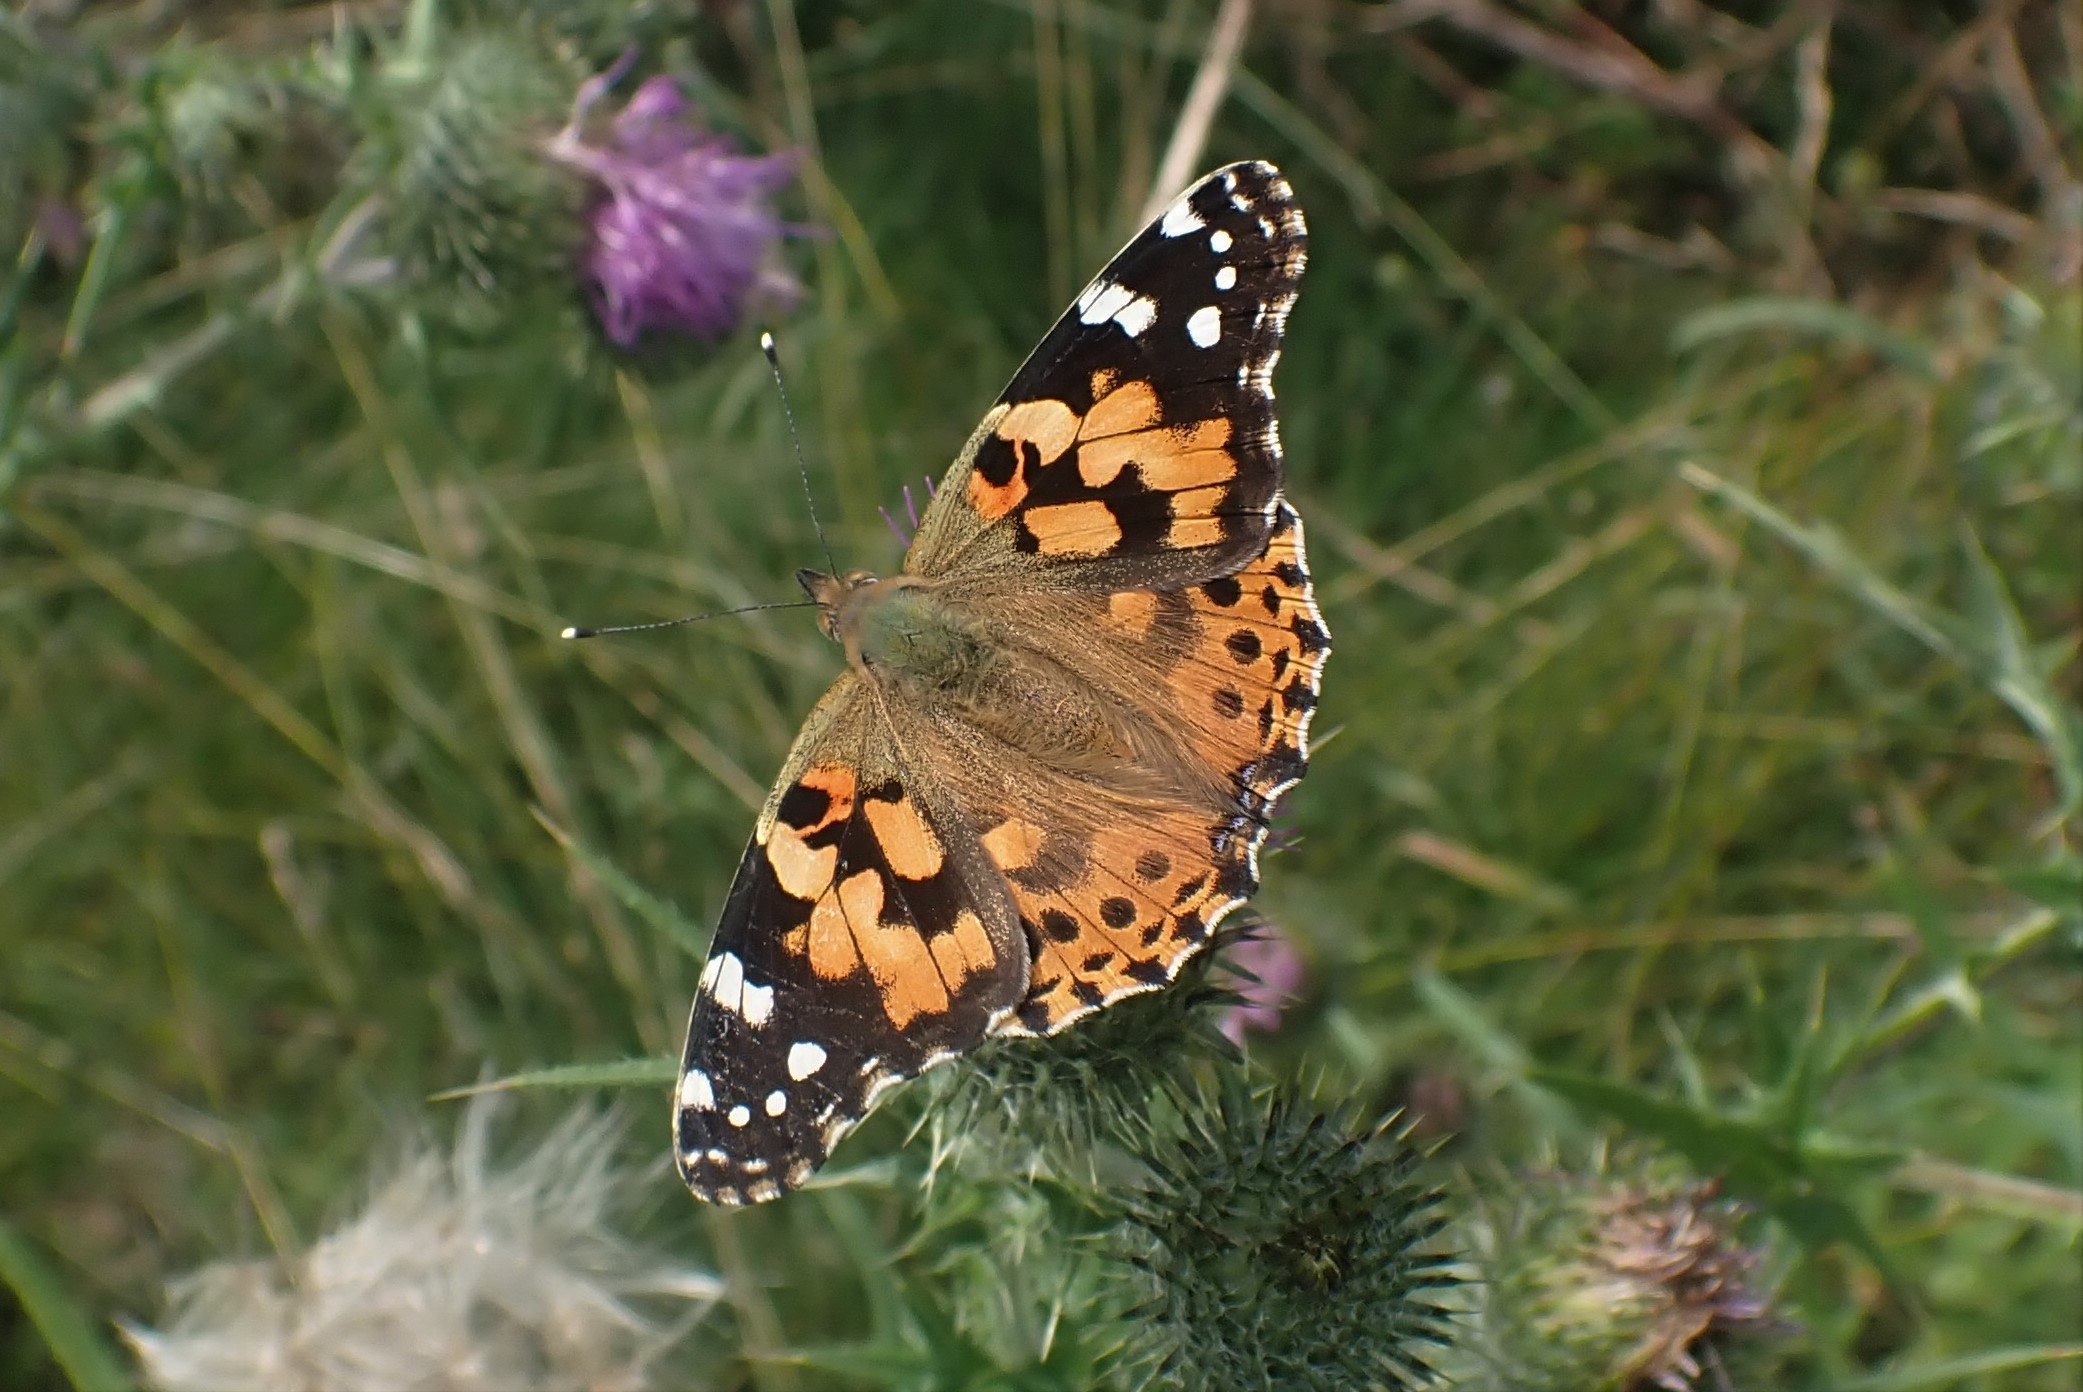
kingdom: Animalia
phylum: Arthropoda
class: Insecta
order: Lepidoptera
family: Nymphalidae
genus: Vanessa
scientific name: Vanessa cardui
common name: Tidselsommerfugl
